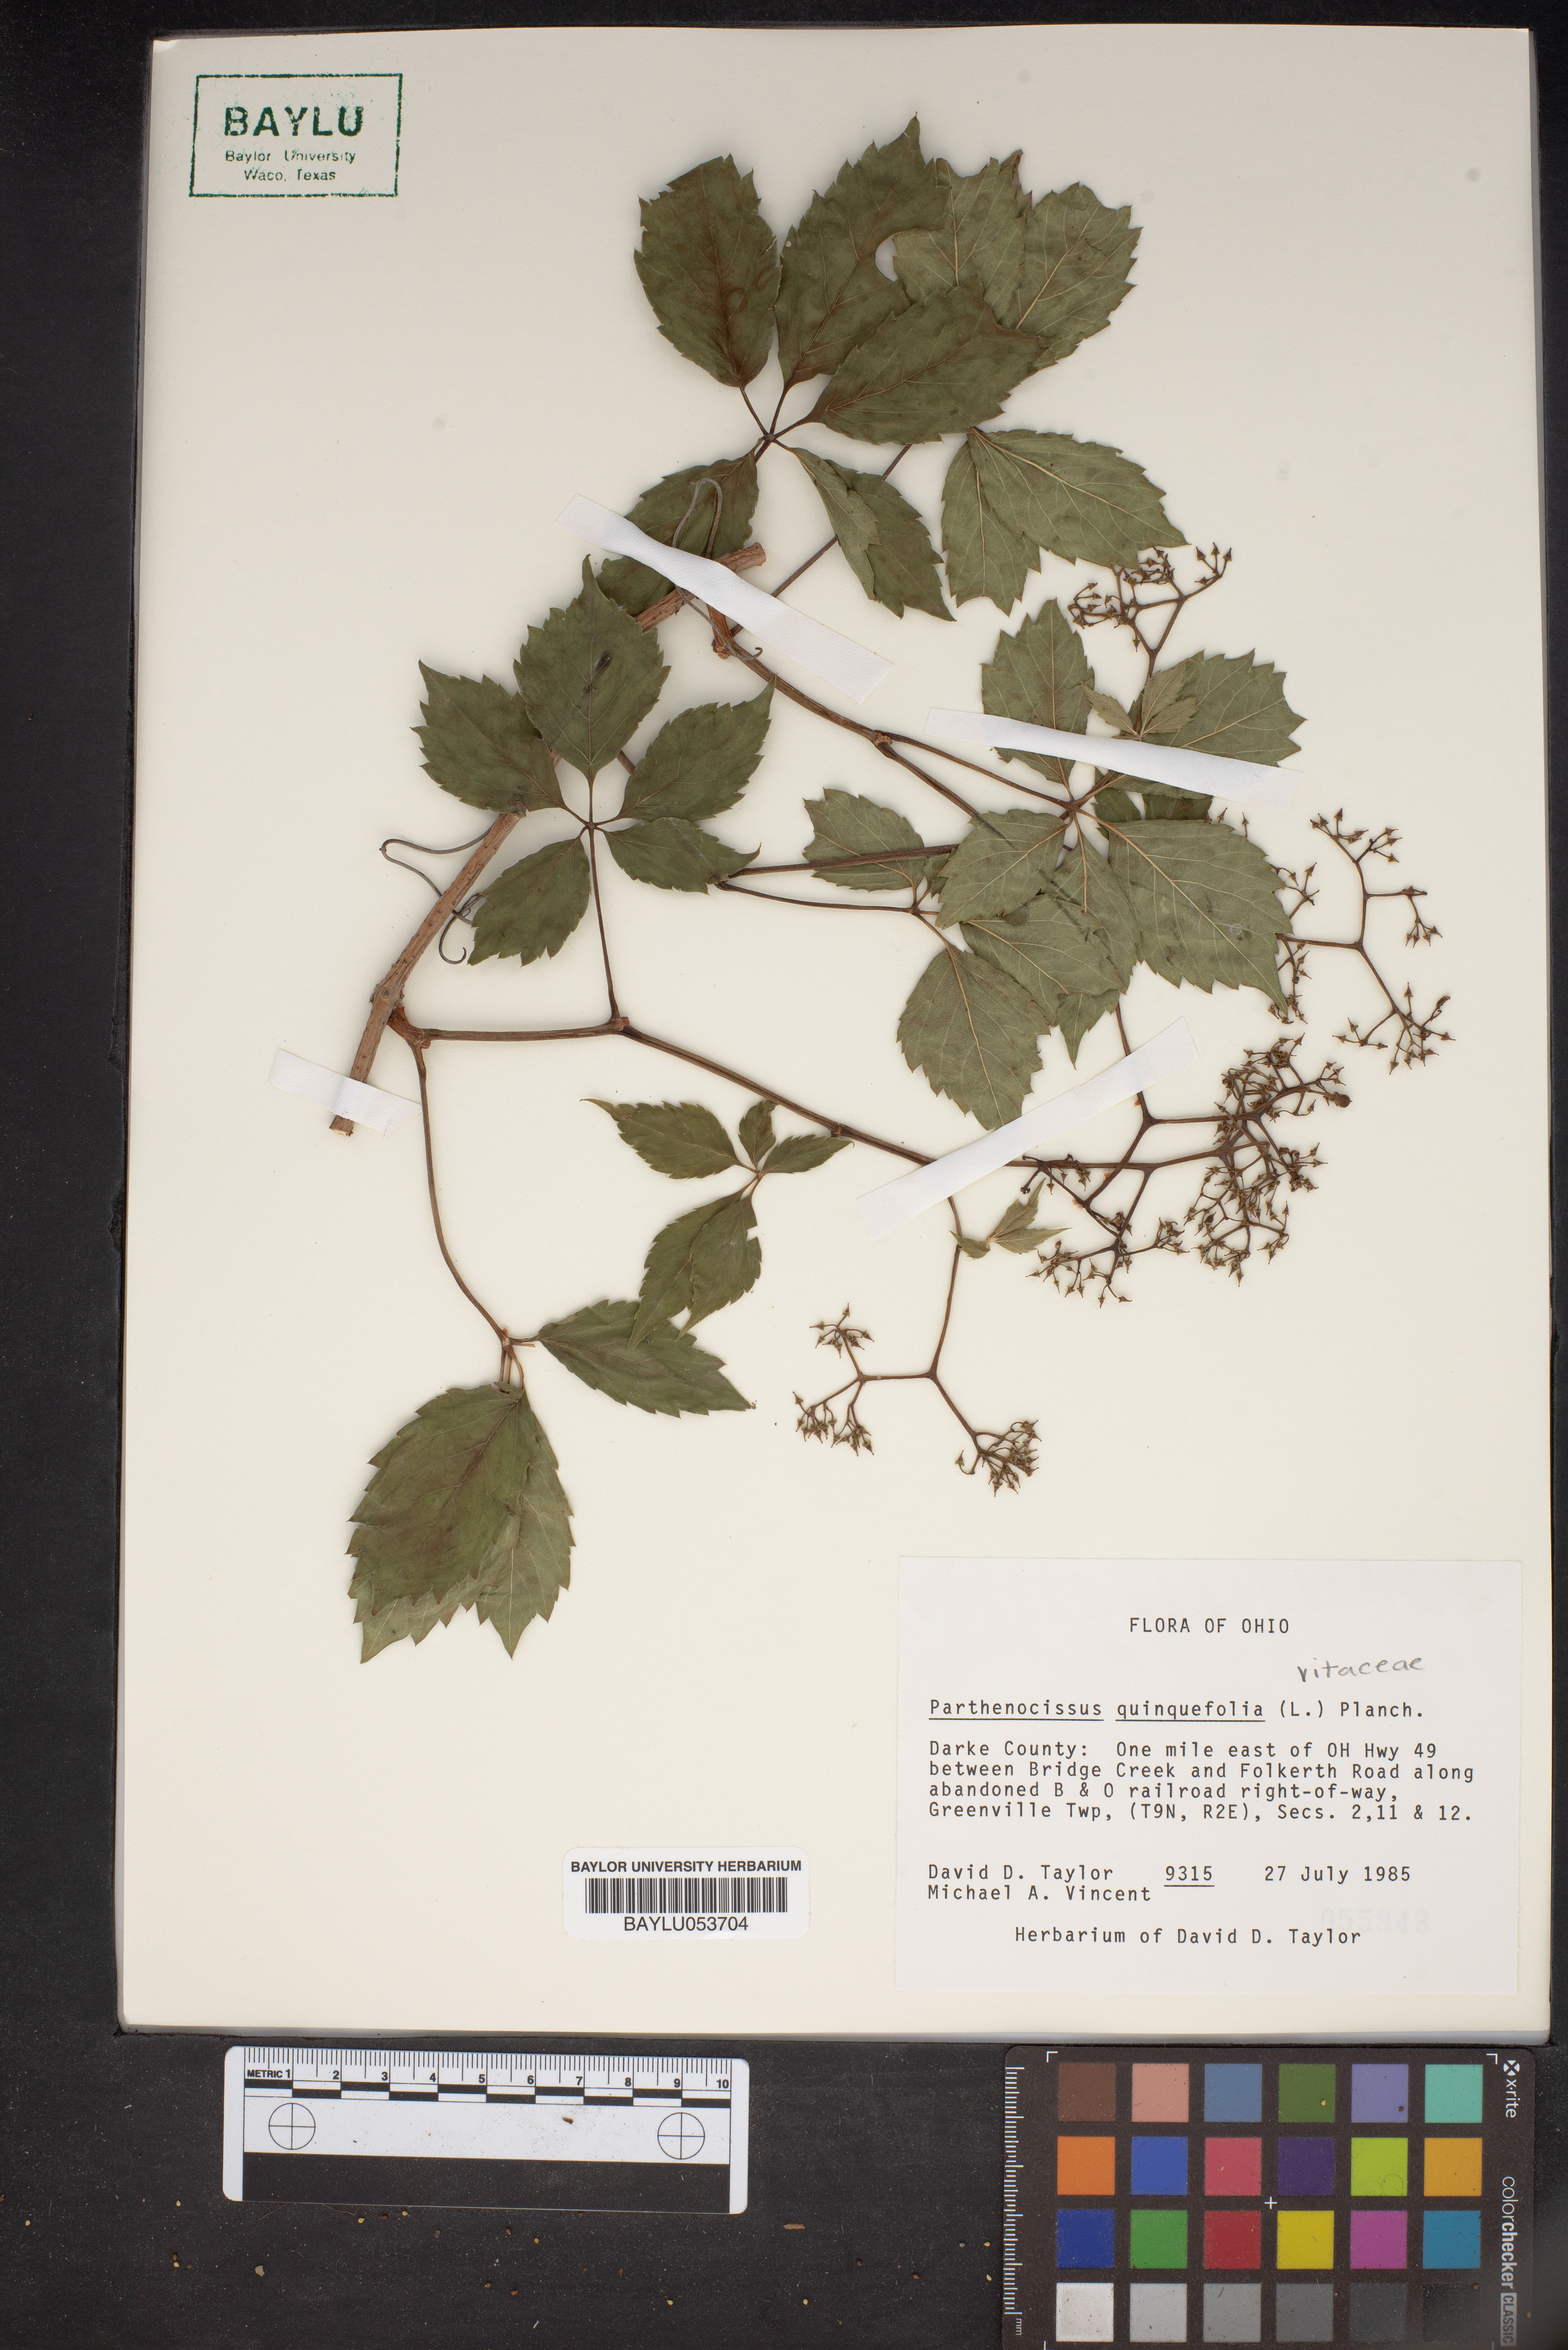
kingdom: Plantae
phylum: Tracheophyta
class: Magnoliopsida
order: Vitales
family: Vitaceae
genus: Parthenocissus
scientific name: Parthenocissus quinquefolia
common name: Virginia-creeper
